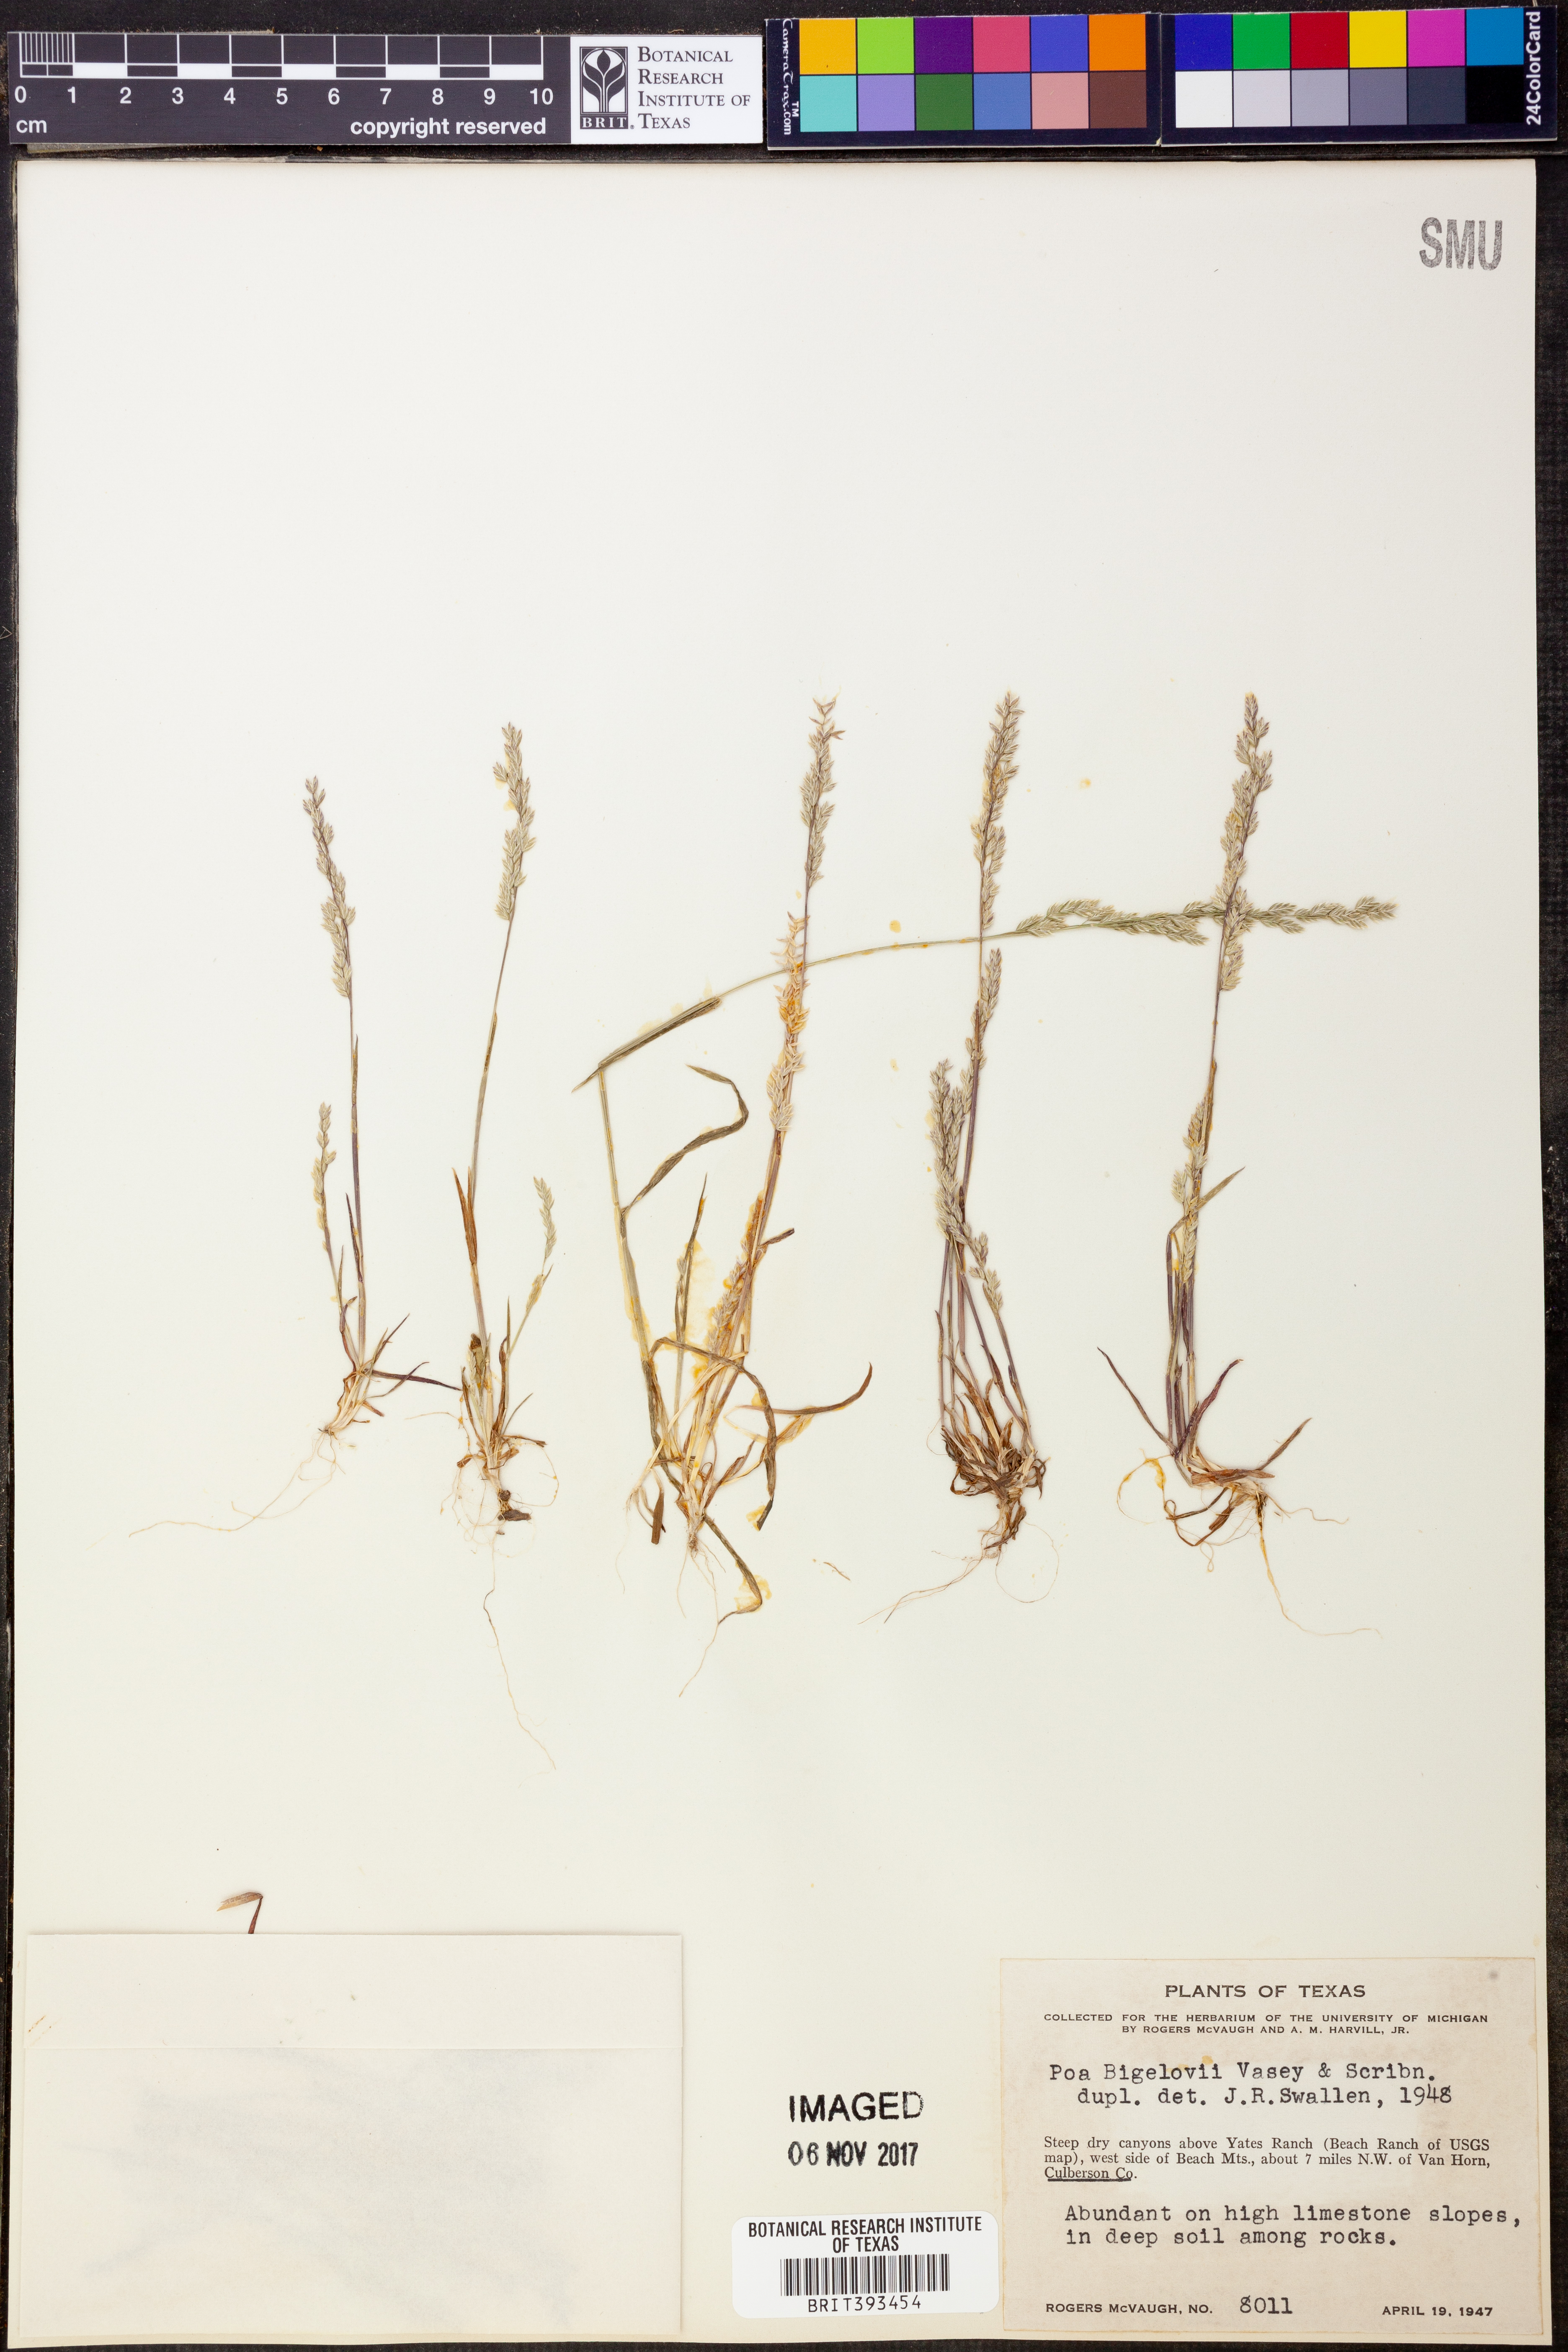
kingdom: Plantae
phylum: Tracheophyta
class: Liliopsida
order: Poales
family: Poaceae
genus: Poa
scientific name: Poa bigelovii
